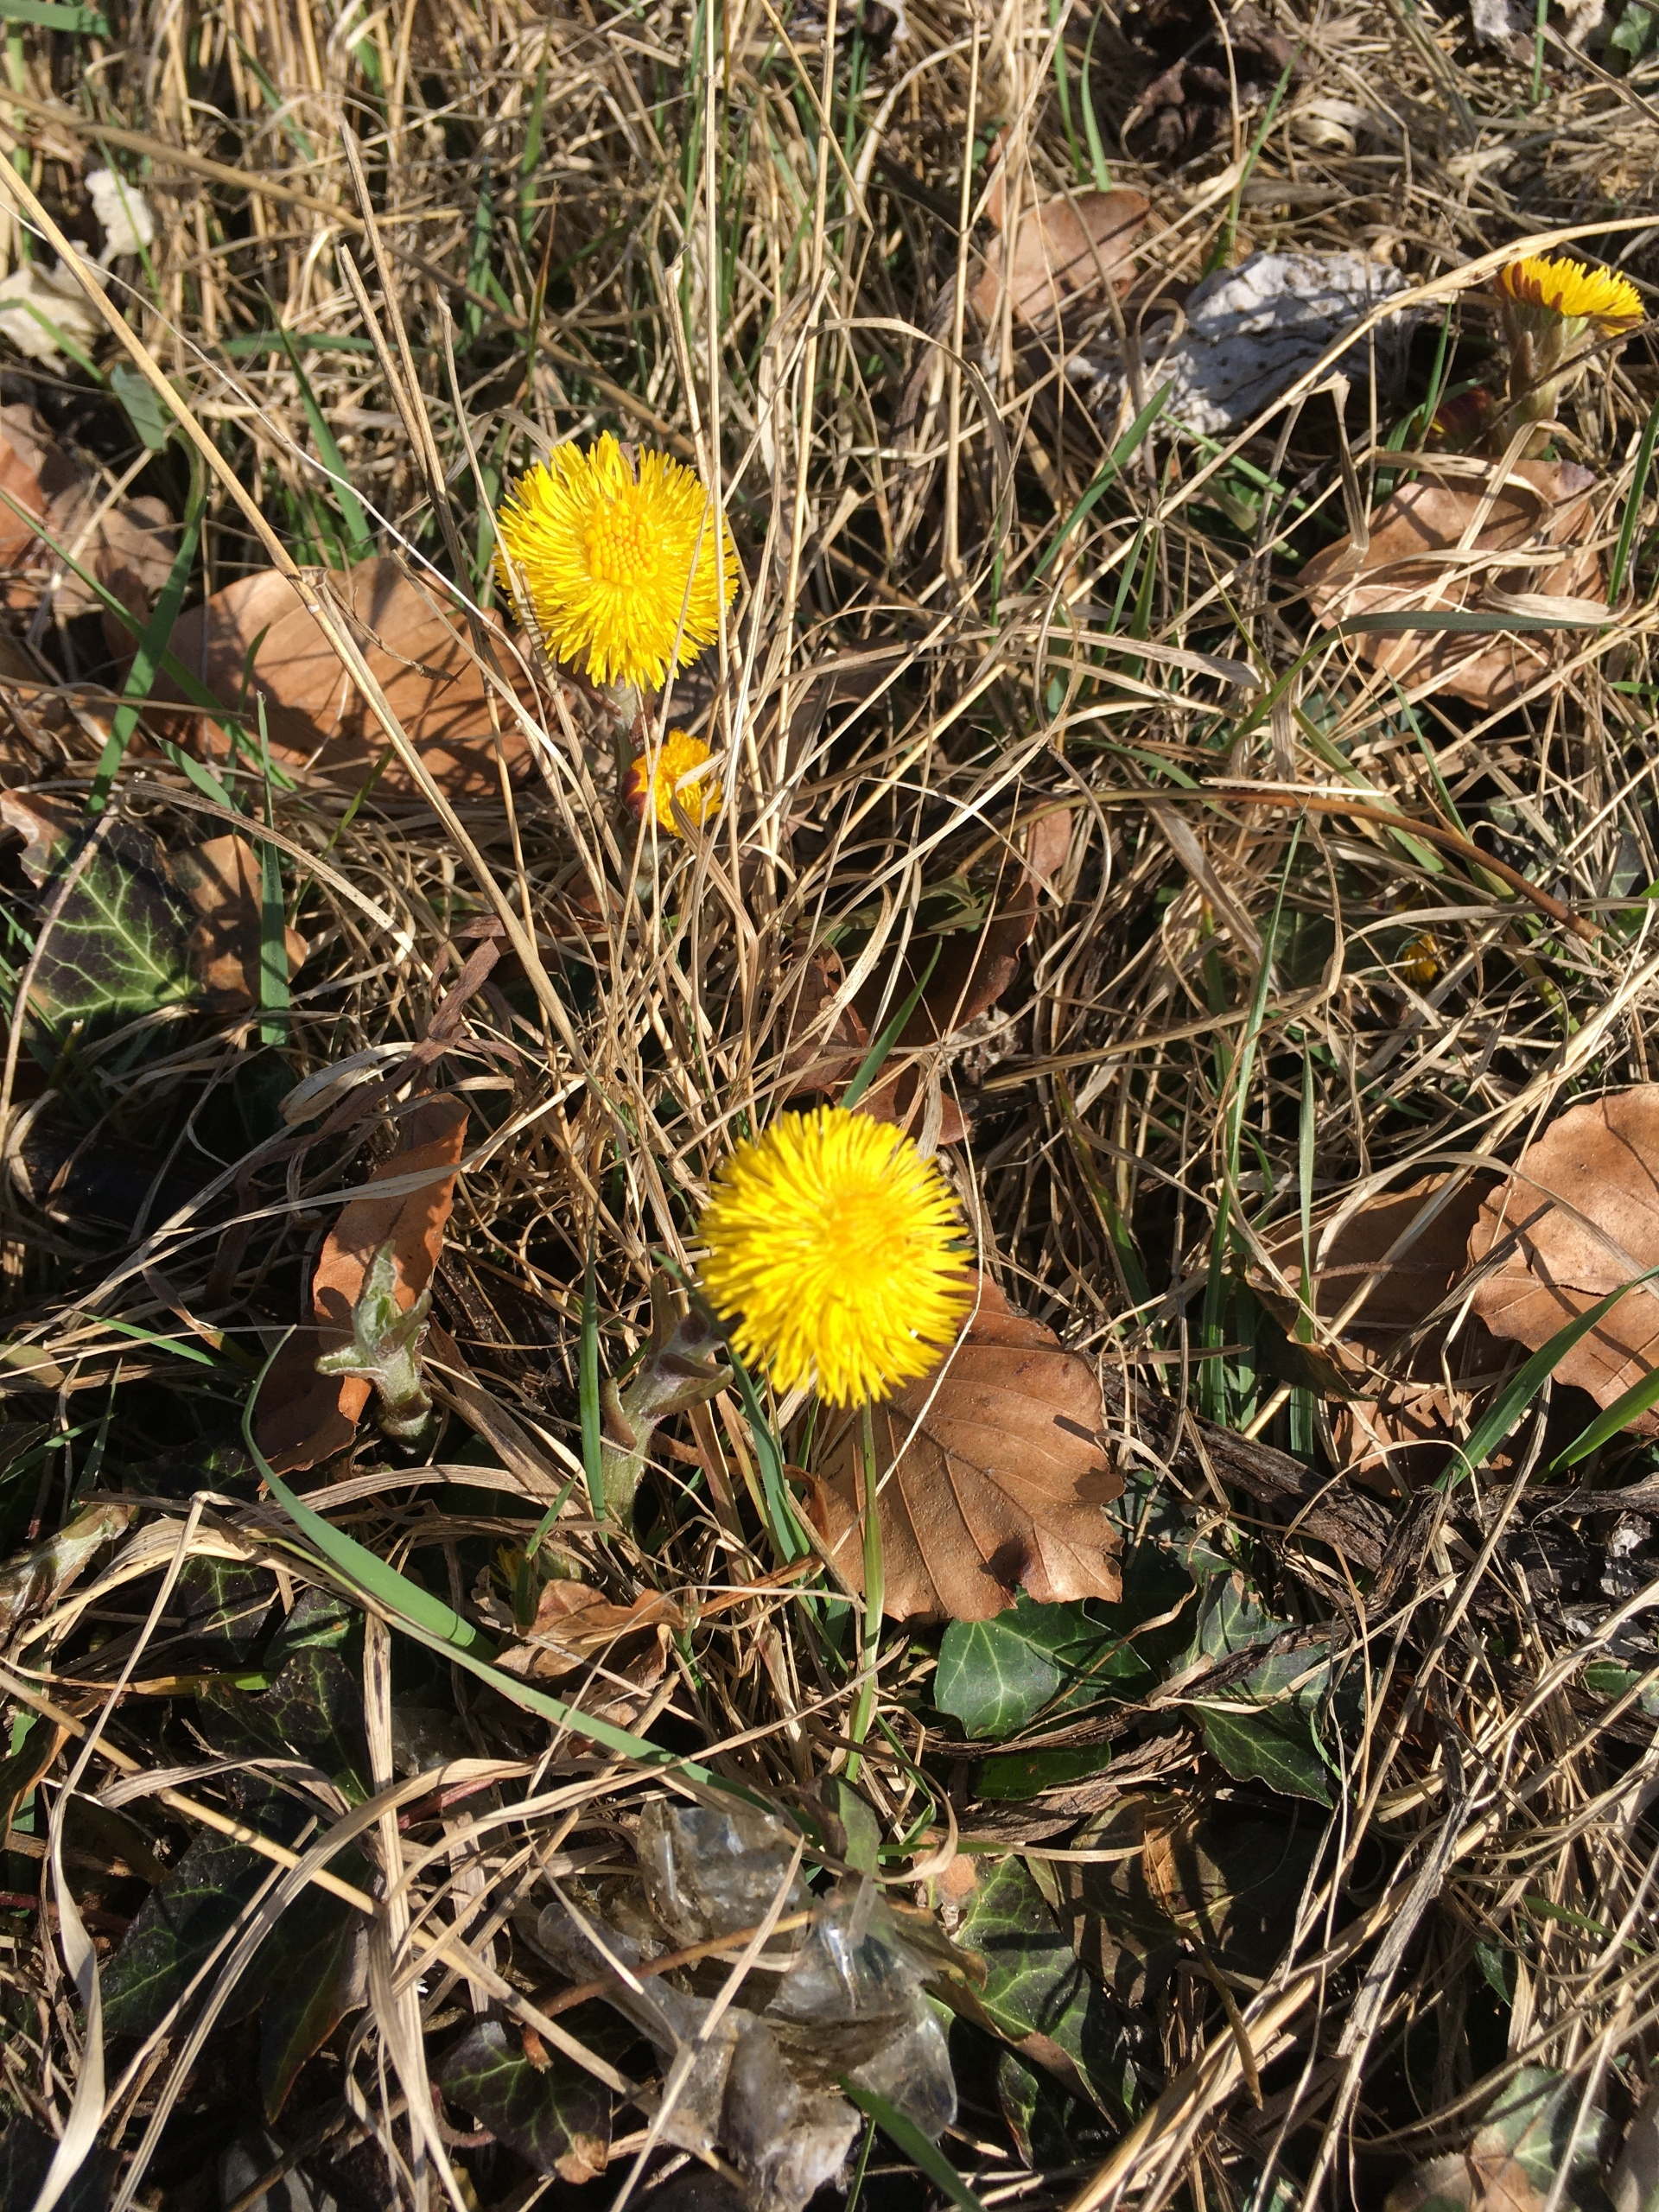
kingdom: Plantae
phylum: Tracheophyta
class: Magnoliopsida
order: Asterales
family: Asteraceae
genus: Tussilago
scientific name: Tussilago farfara
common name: Følfod
